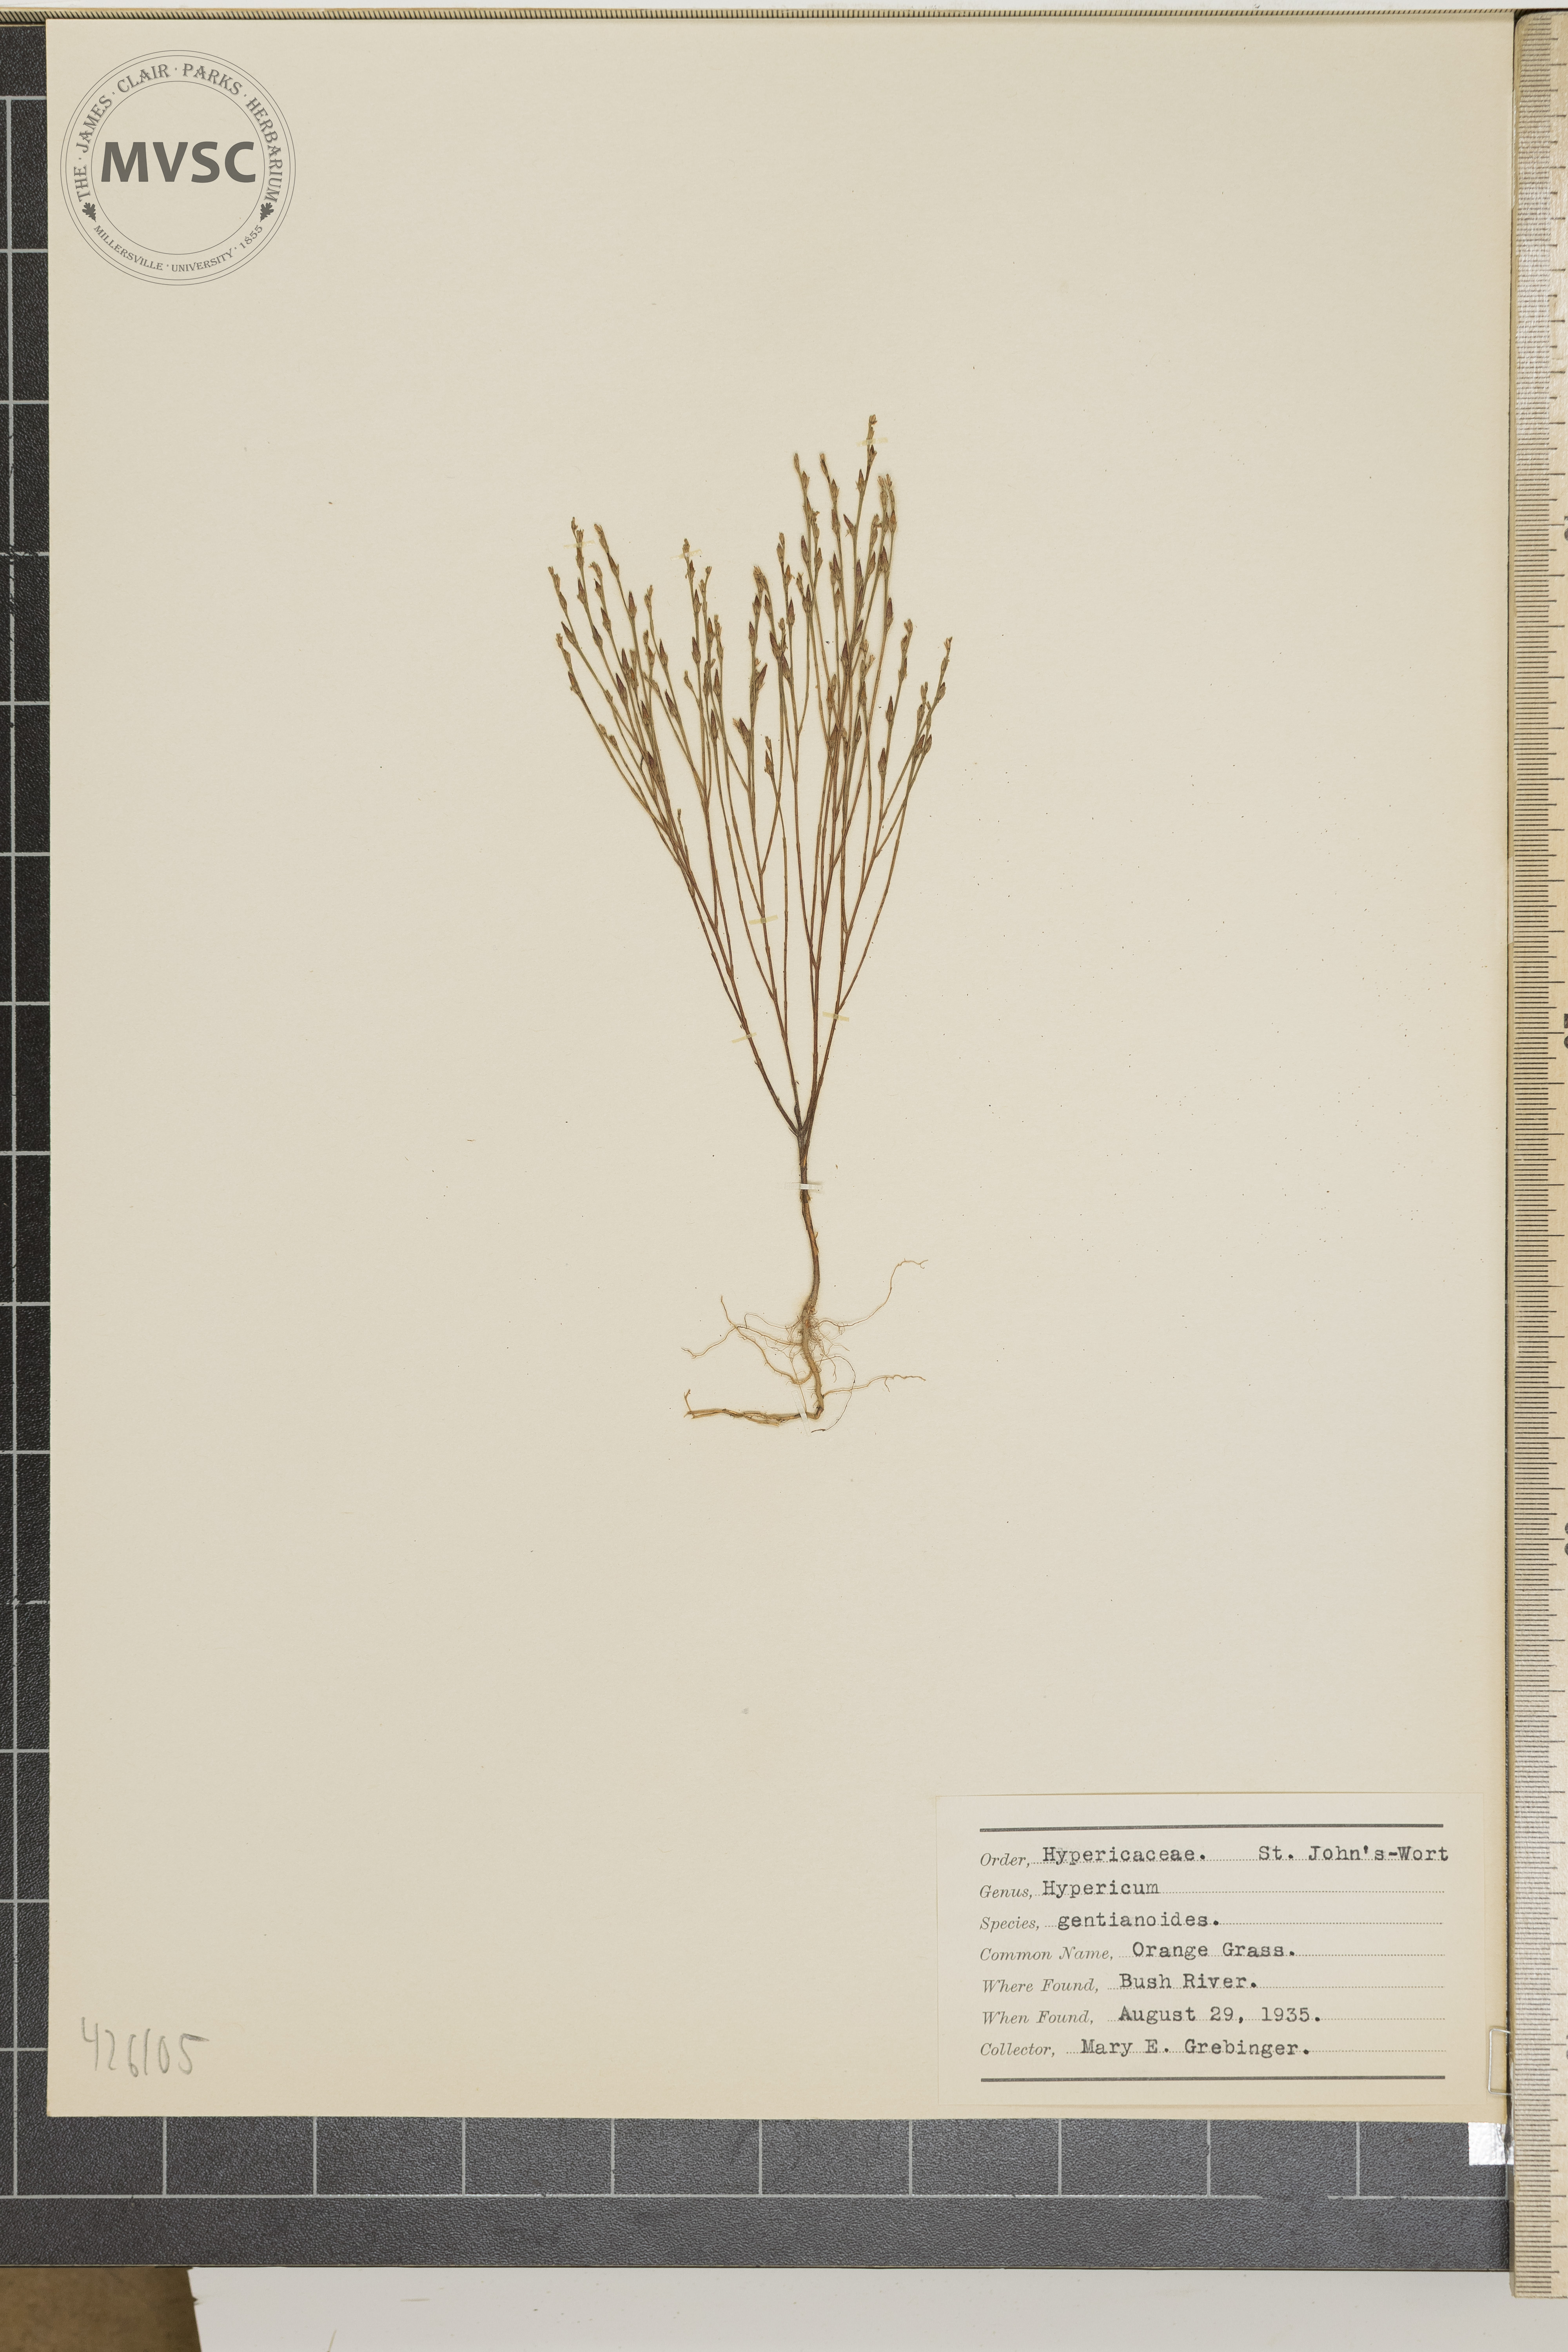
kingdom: Plantae
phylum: Tracheophyta
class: Magnoliopsida
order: Malpighiales
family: Hypericaceae
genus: Hypericum
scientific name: Hypericum gentianoides
